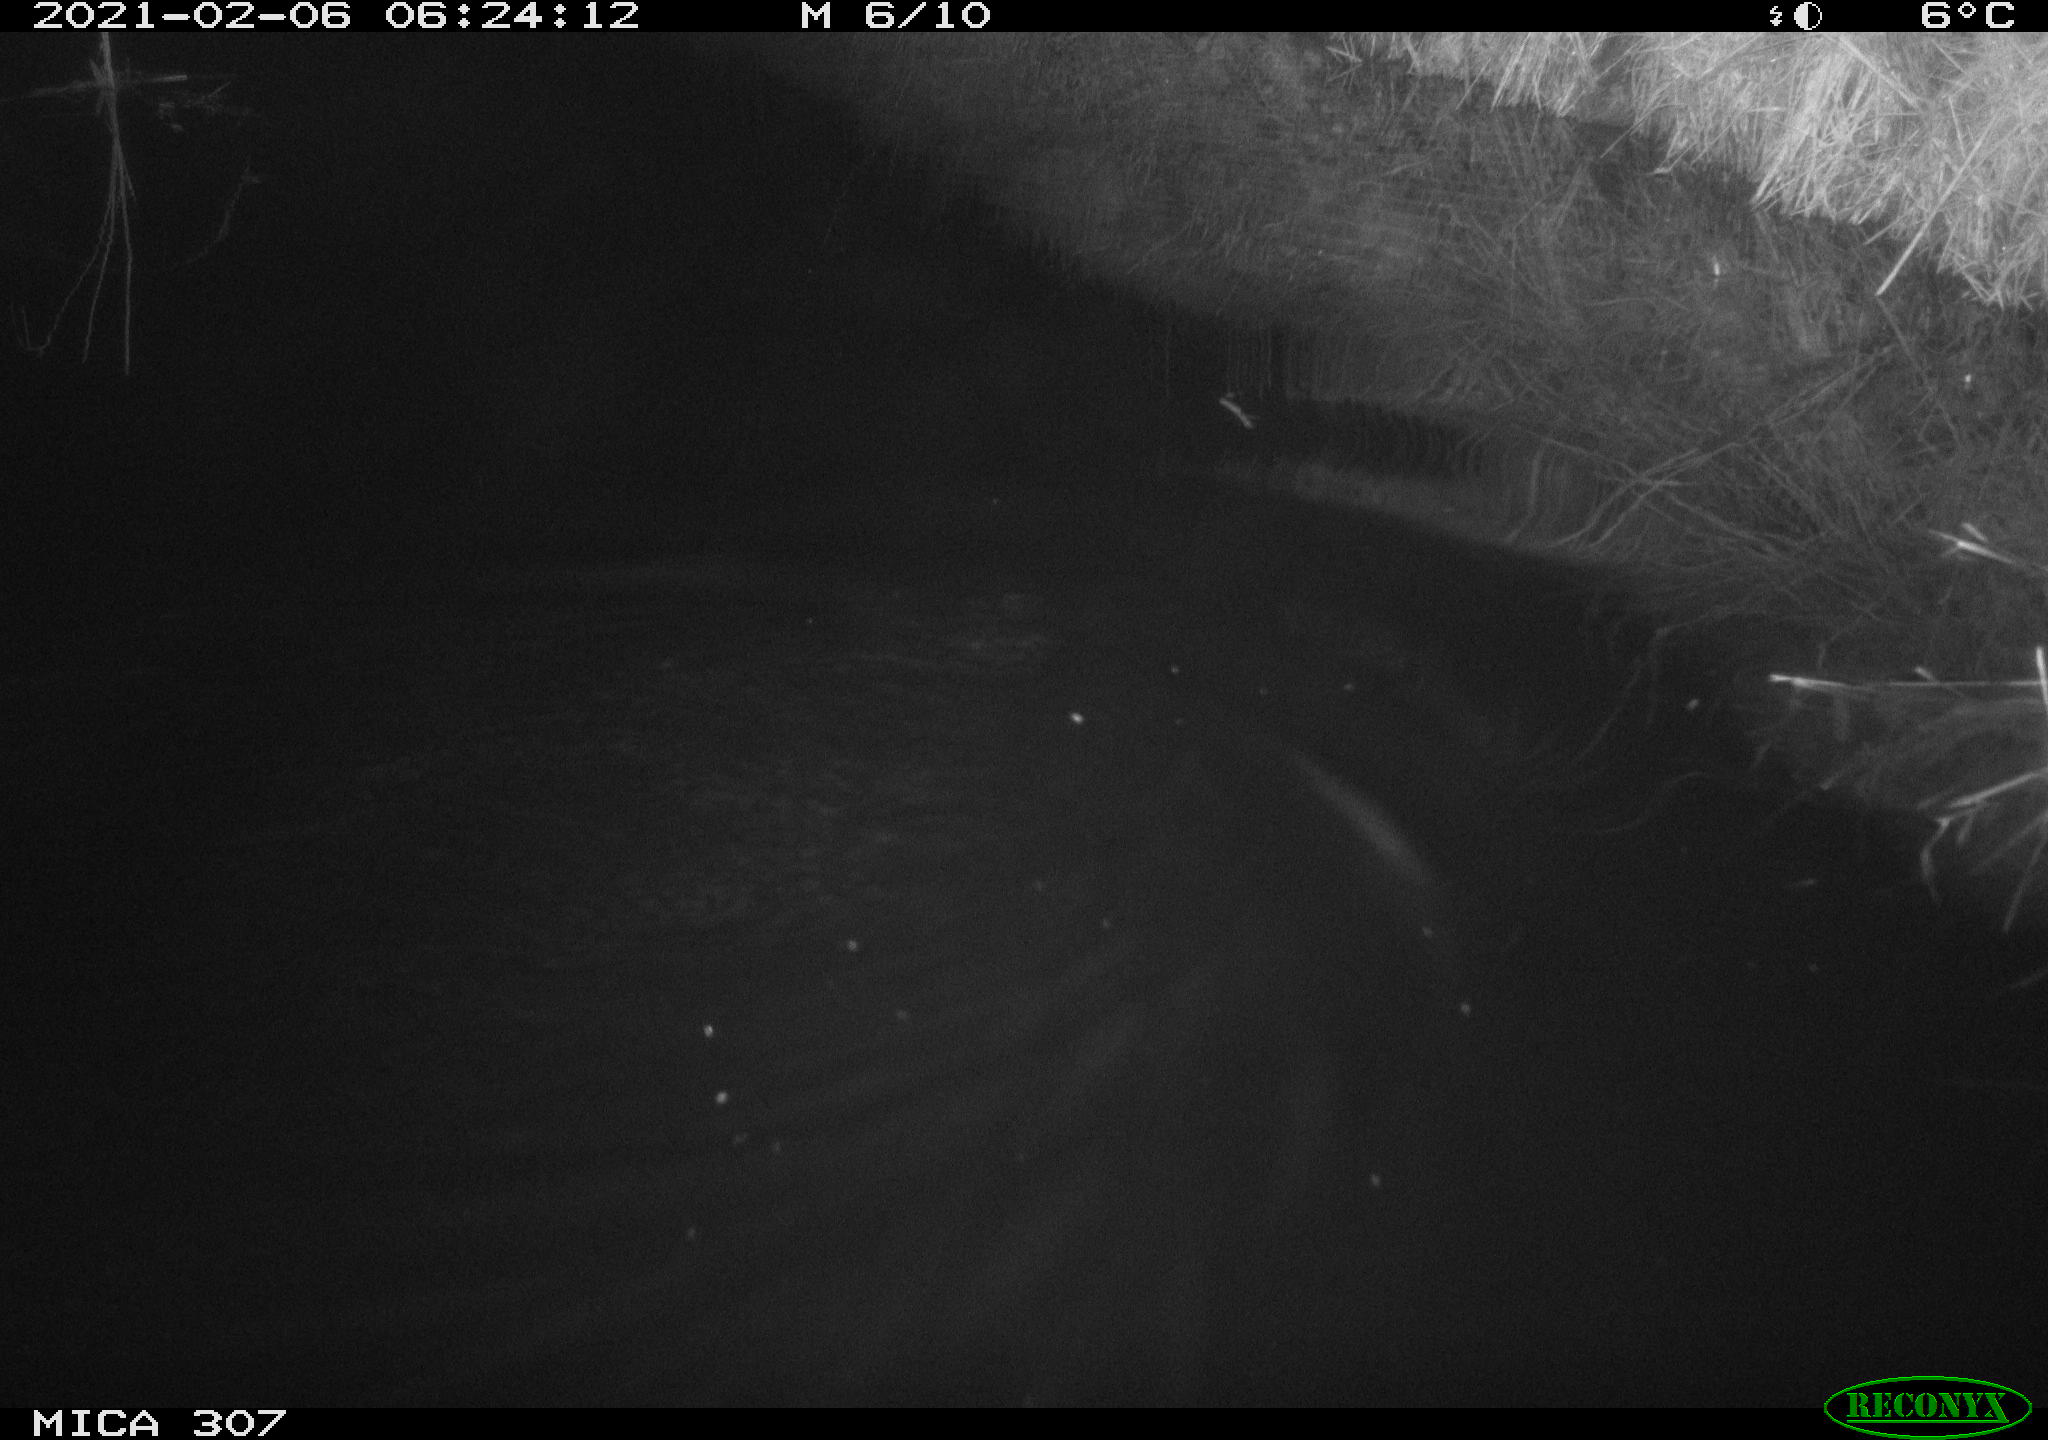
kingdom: Animalia
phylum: Chordata
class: Mammalia
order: Rodentia
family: Cricetidae
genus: Ondatra
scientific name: Ondatra zibethicus
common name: Muskrat
